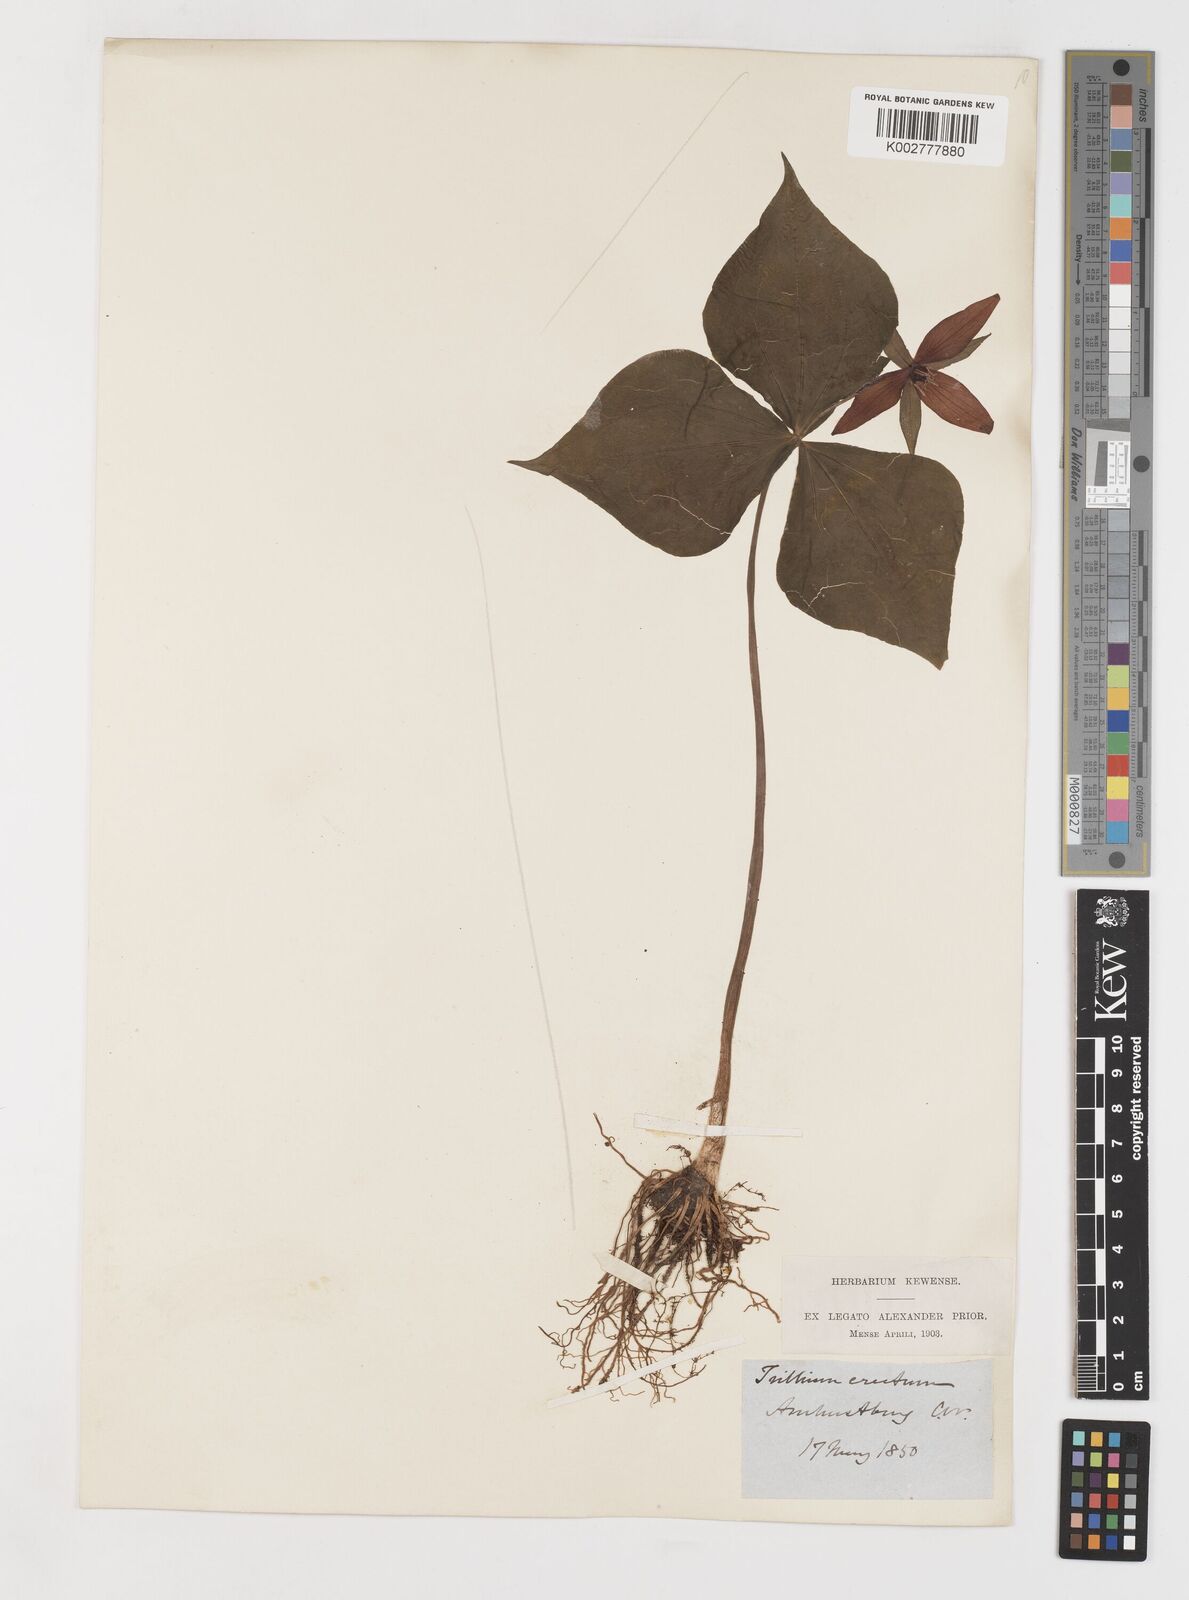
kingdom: Plantae
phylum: Tracheophyta
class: Liliopsida
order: Liliales
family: Melanthiaceae
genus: Trillium
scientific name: Trillium erectum
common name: Purple trillium
